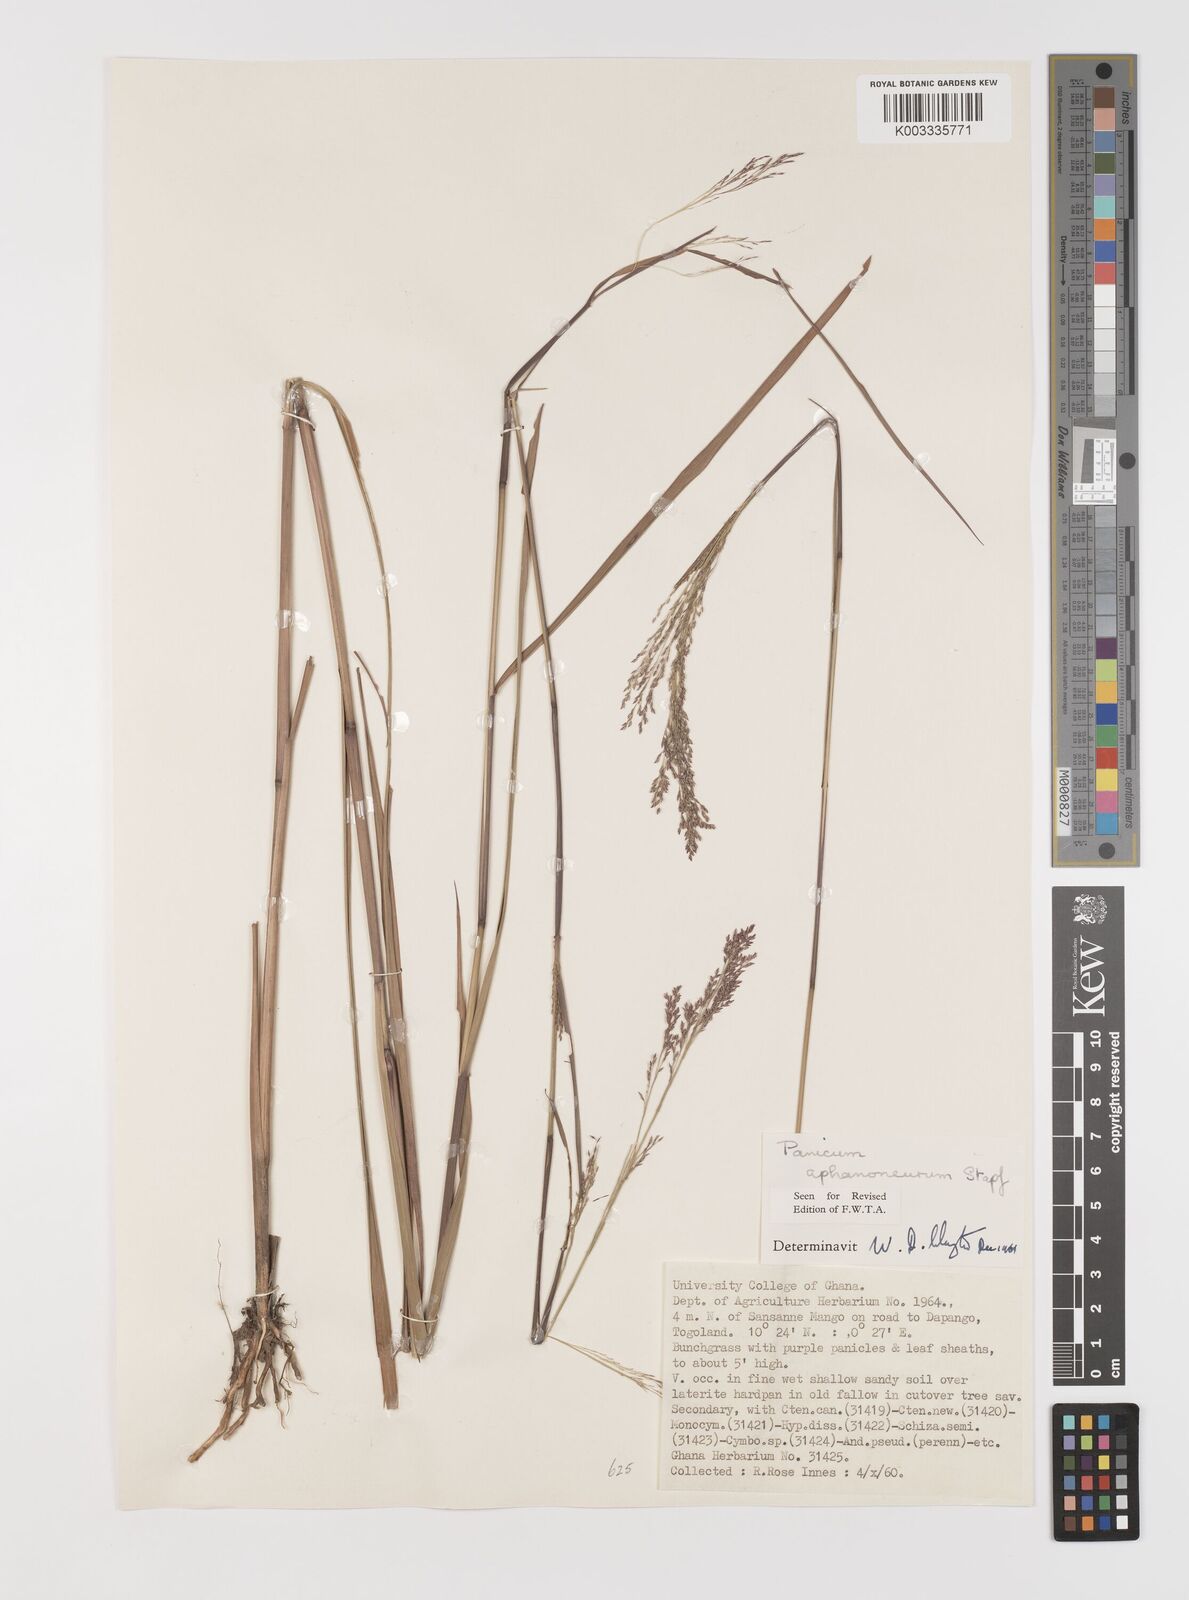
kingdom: Plantae
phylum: Tracheophyta
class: Liliopsida
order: Poales
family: Poaceae
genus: Panicum
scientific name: Panicum fluviicola
